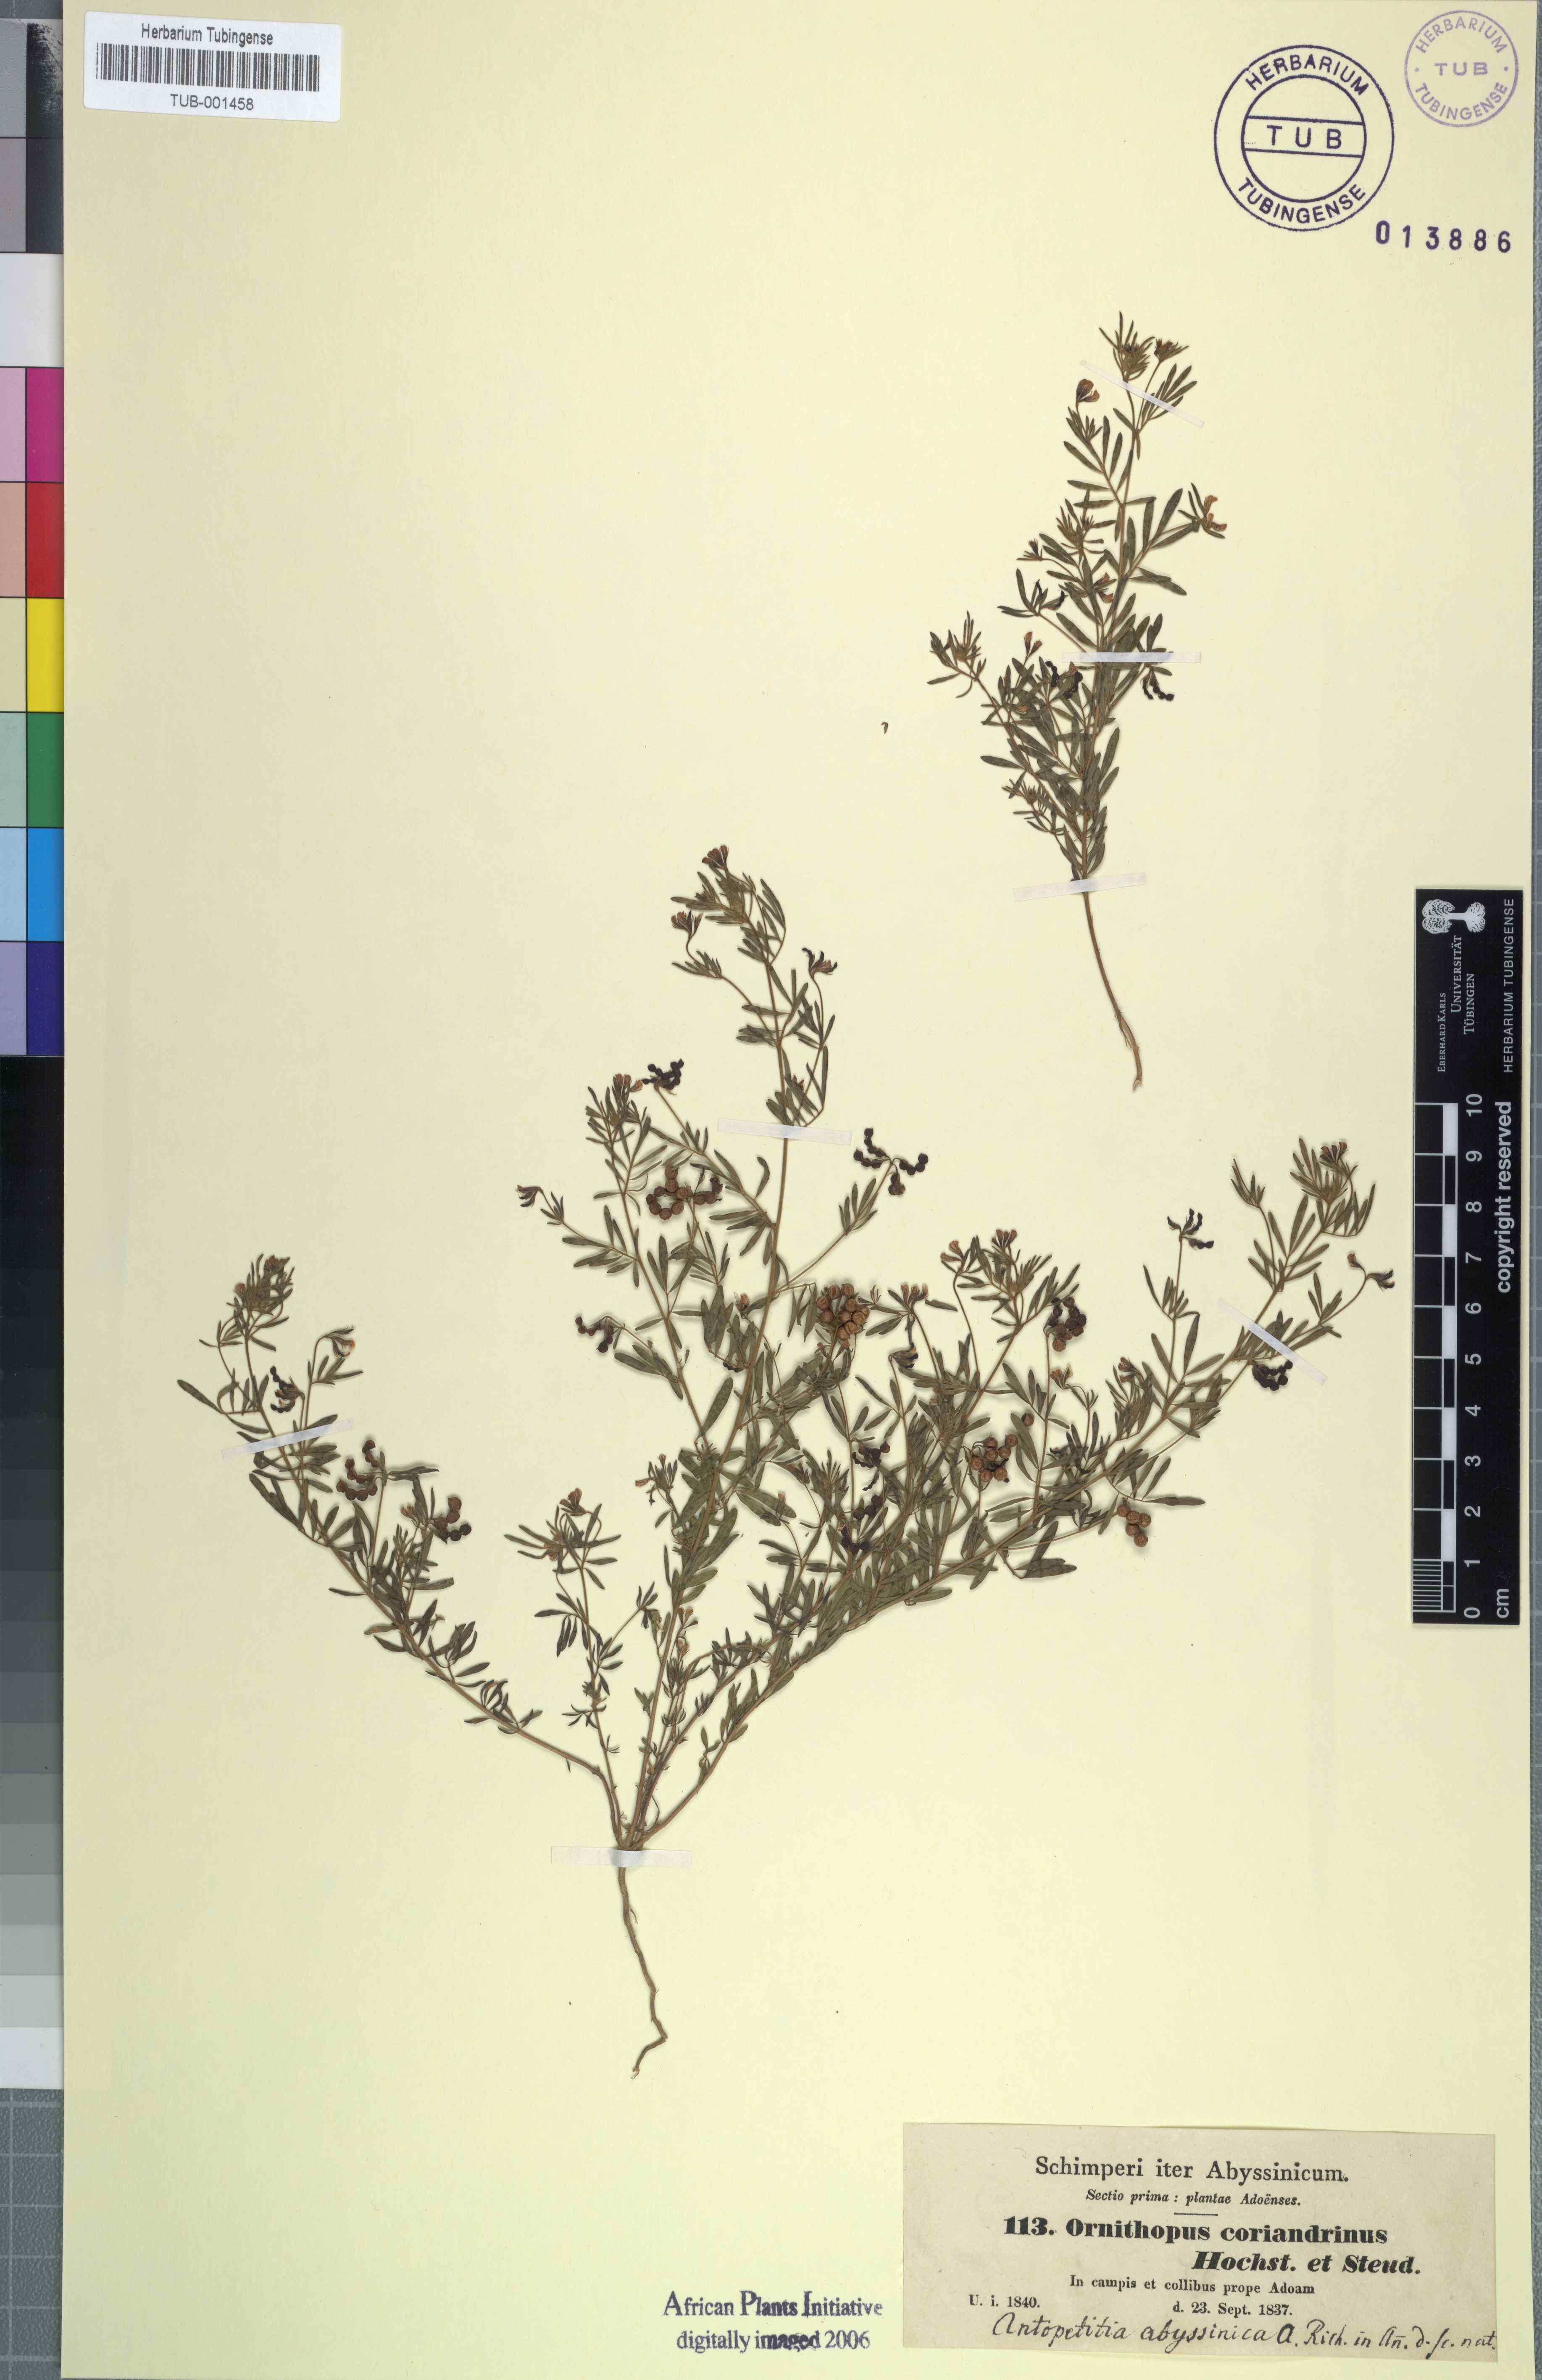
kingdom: Plantae
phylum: Tracheophyta
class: Magnoliopsida
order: Fabales
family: Fabaceae
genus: Ornithopus
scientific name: Ornithopus coriandrinus
